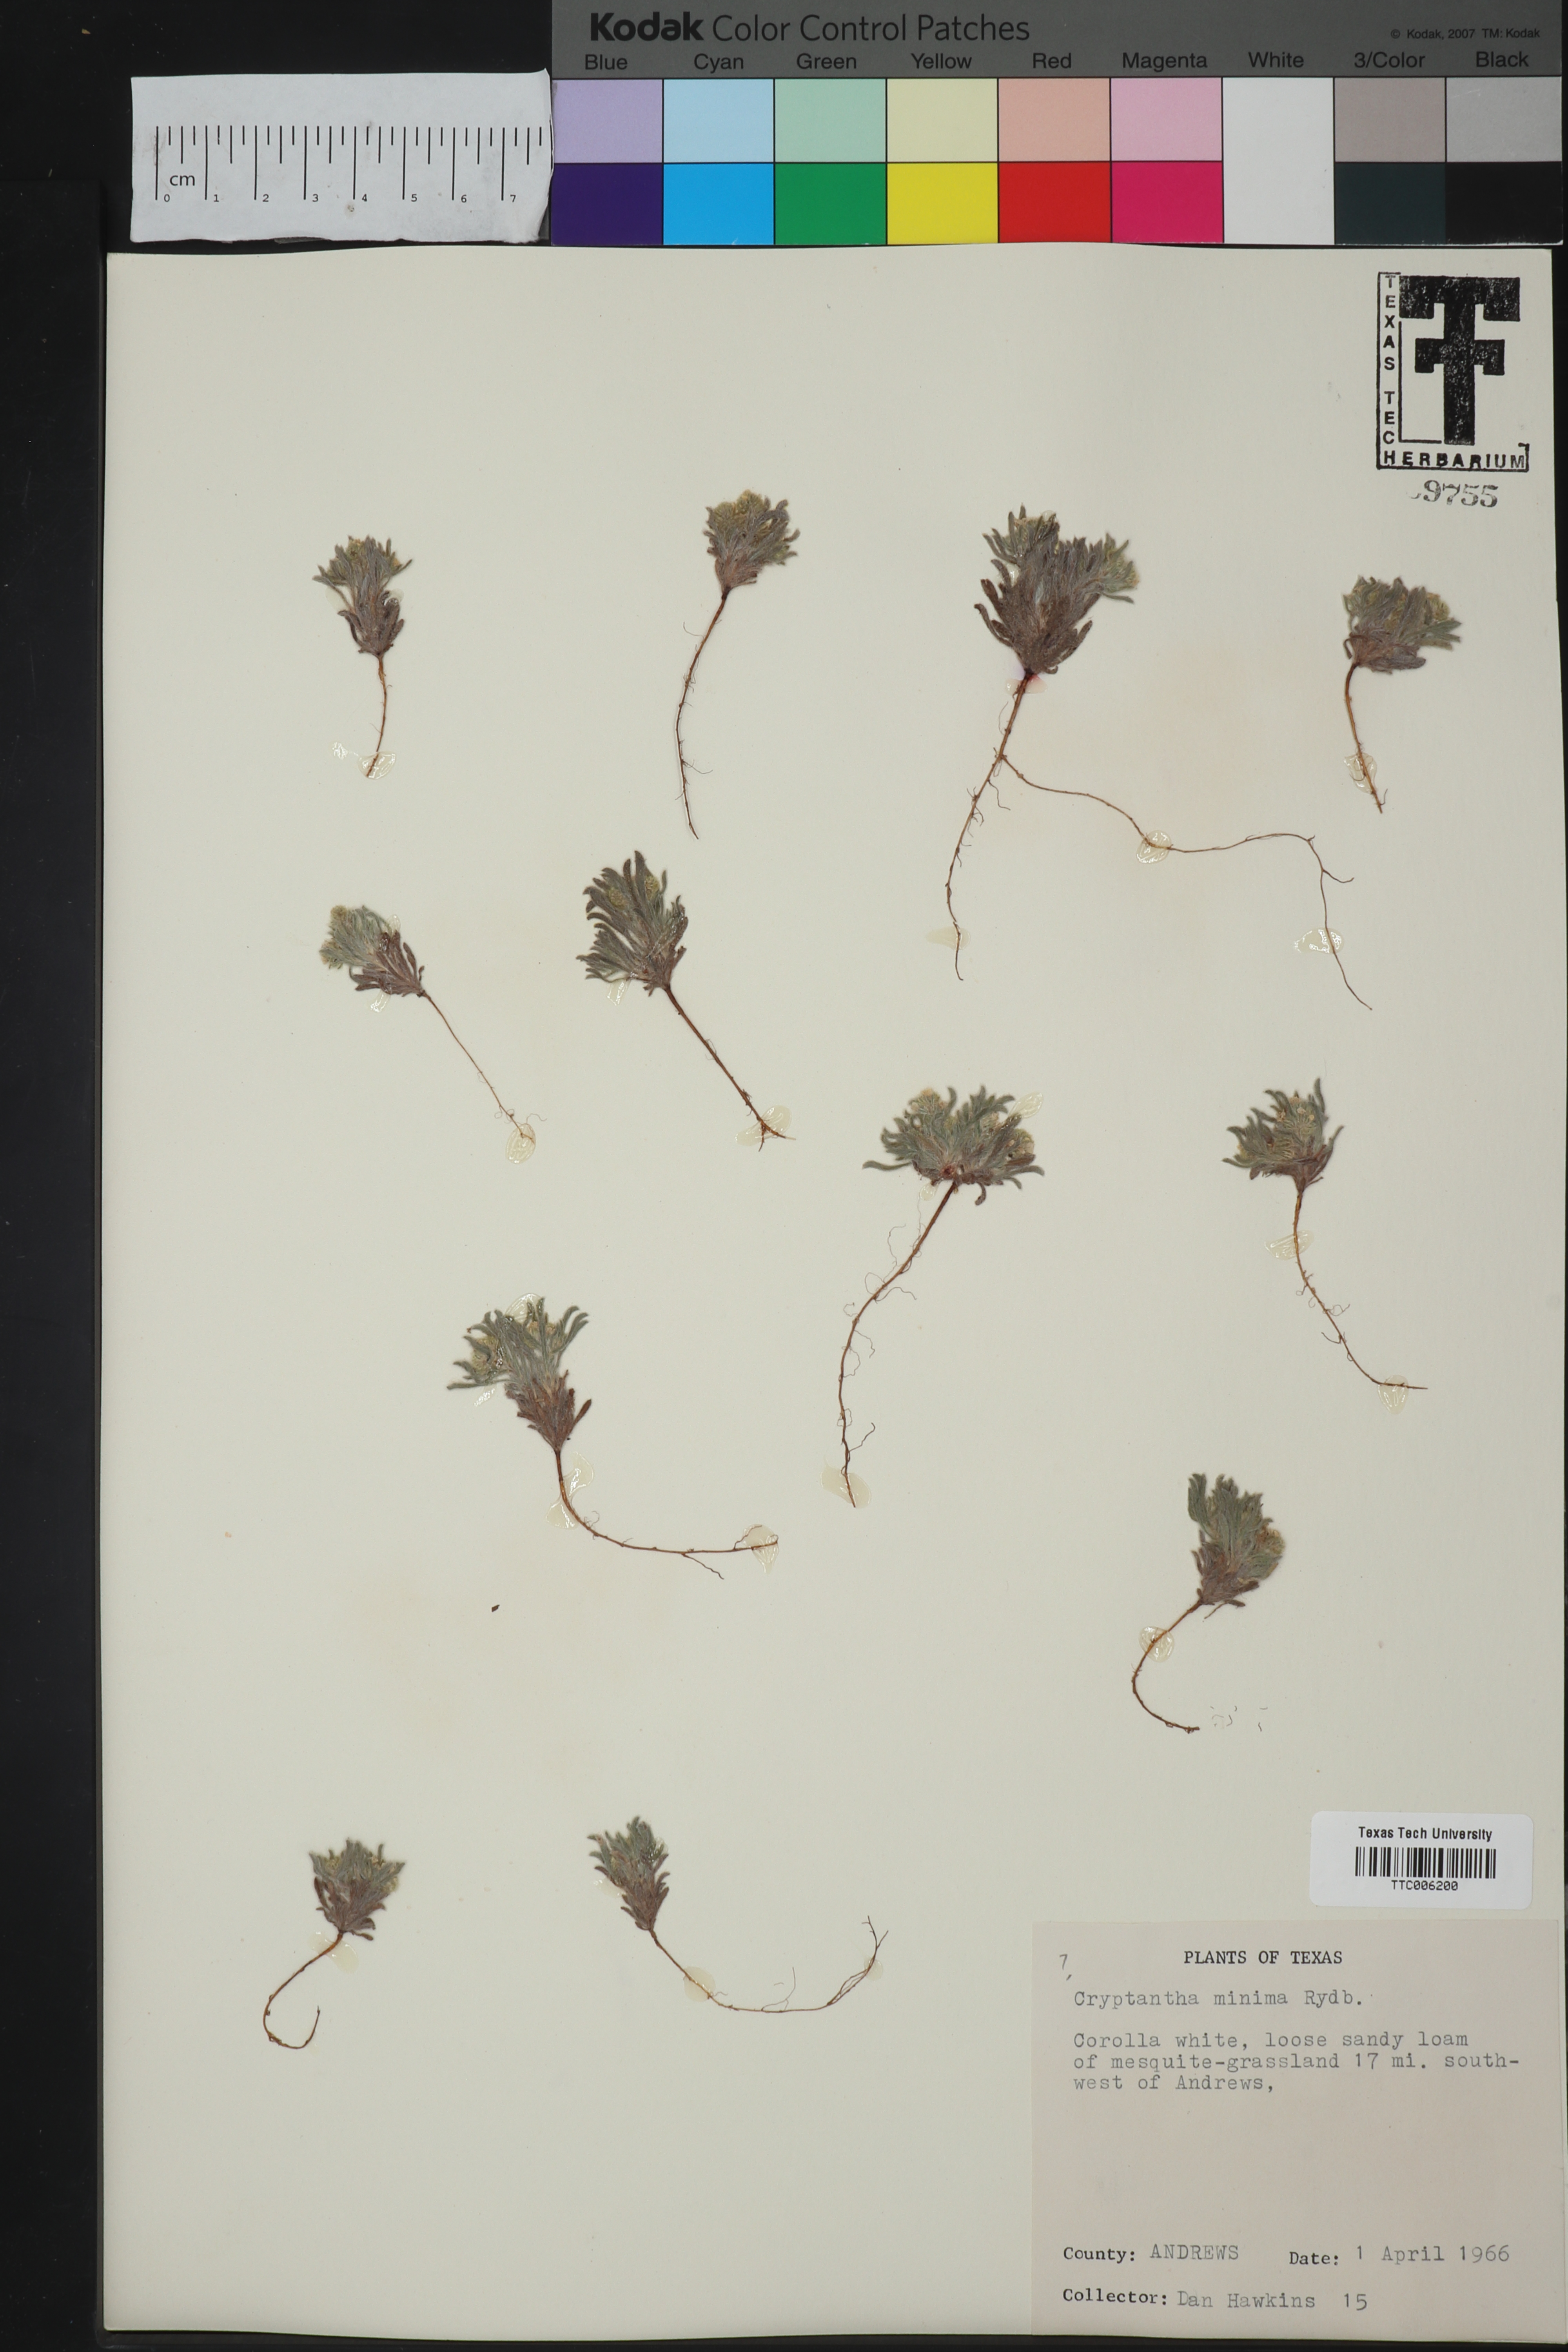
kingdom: Plantae
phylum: Tracheophyta
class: Magnoliopsida
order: Boraginales
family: Boraginaceae
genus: Cryptantha
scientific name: Cryptantha minima
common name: Little cat's-eye
